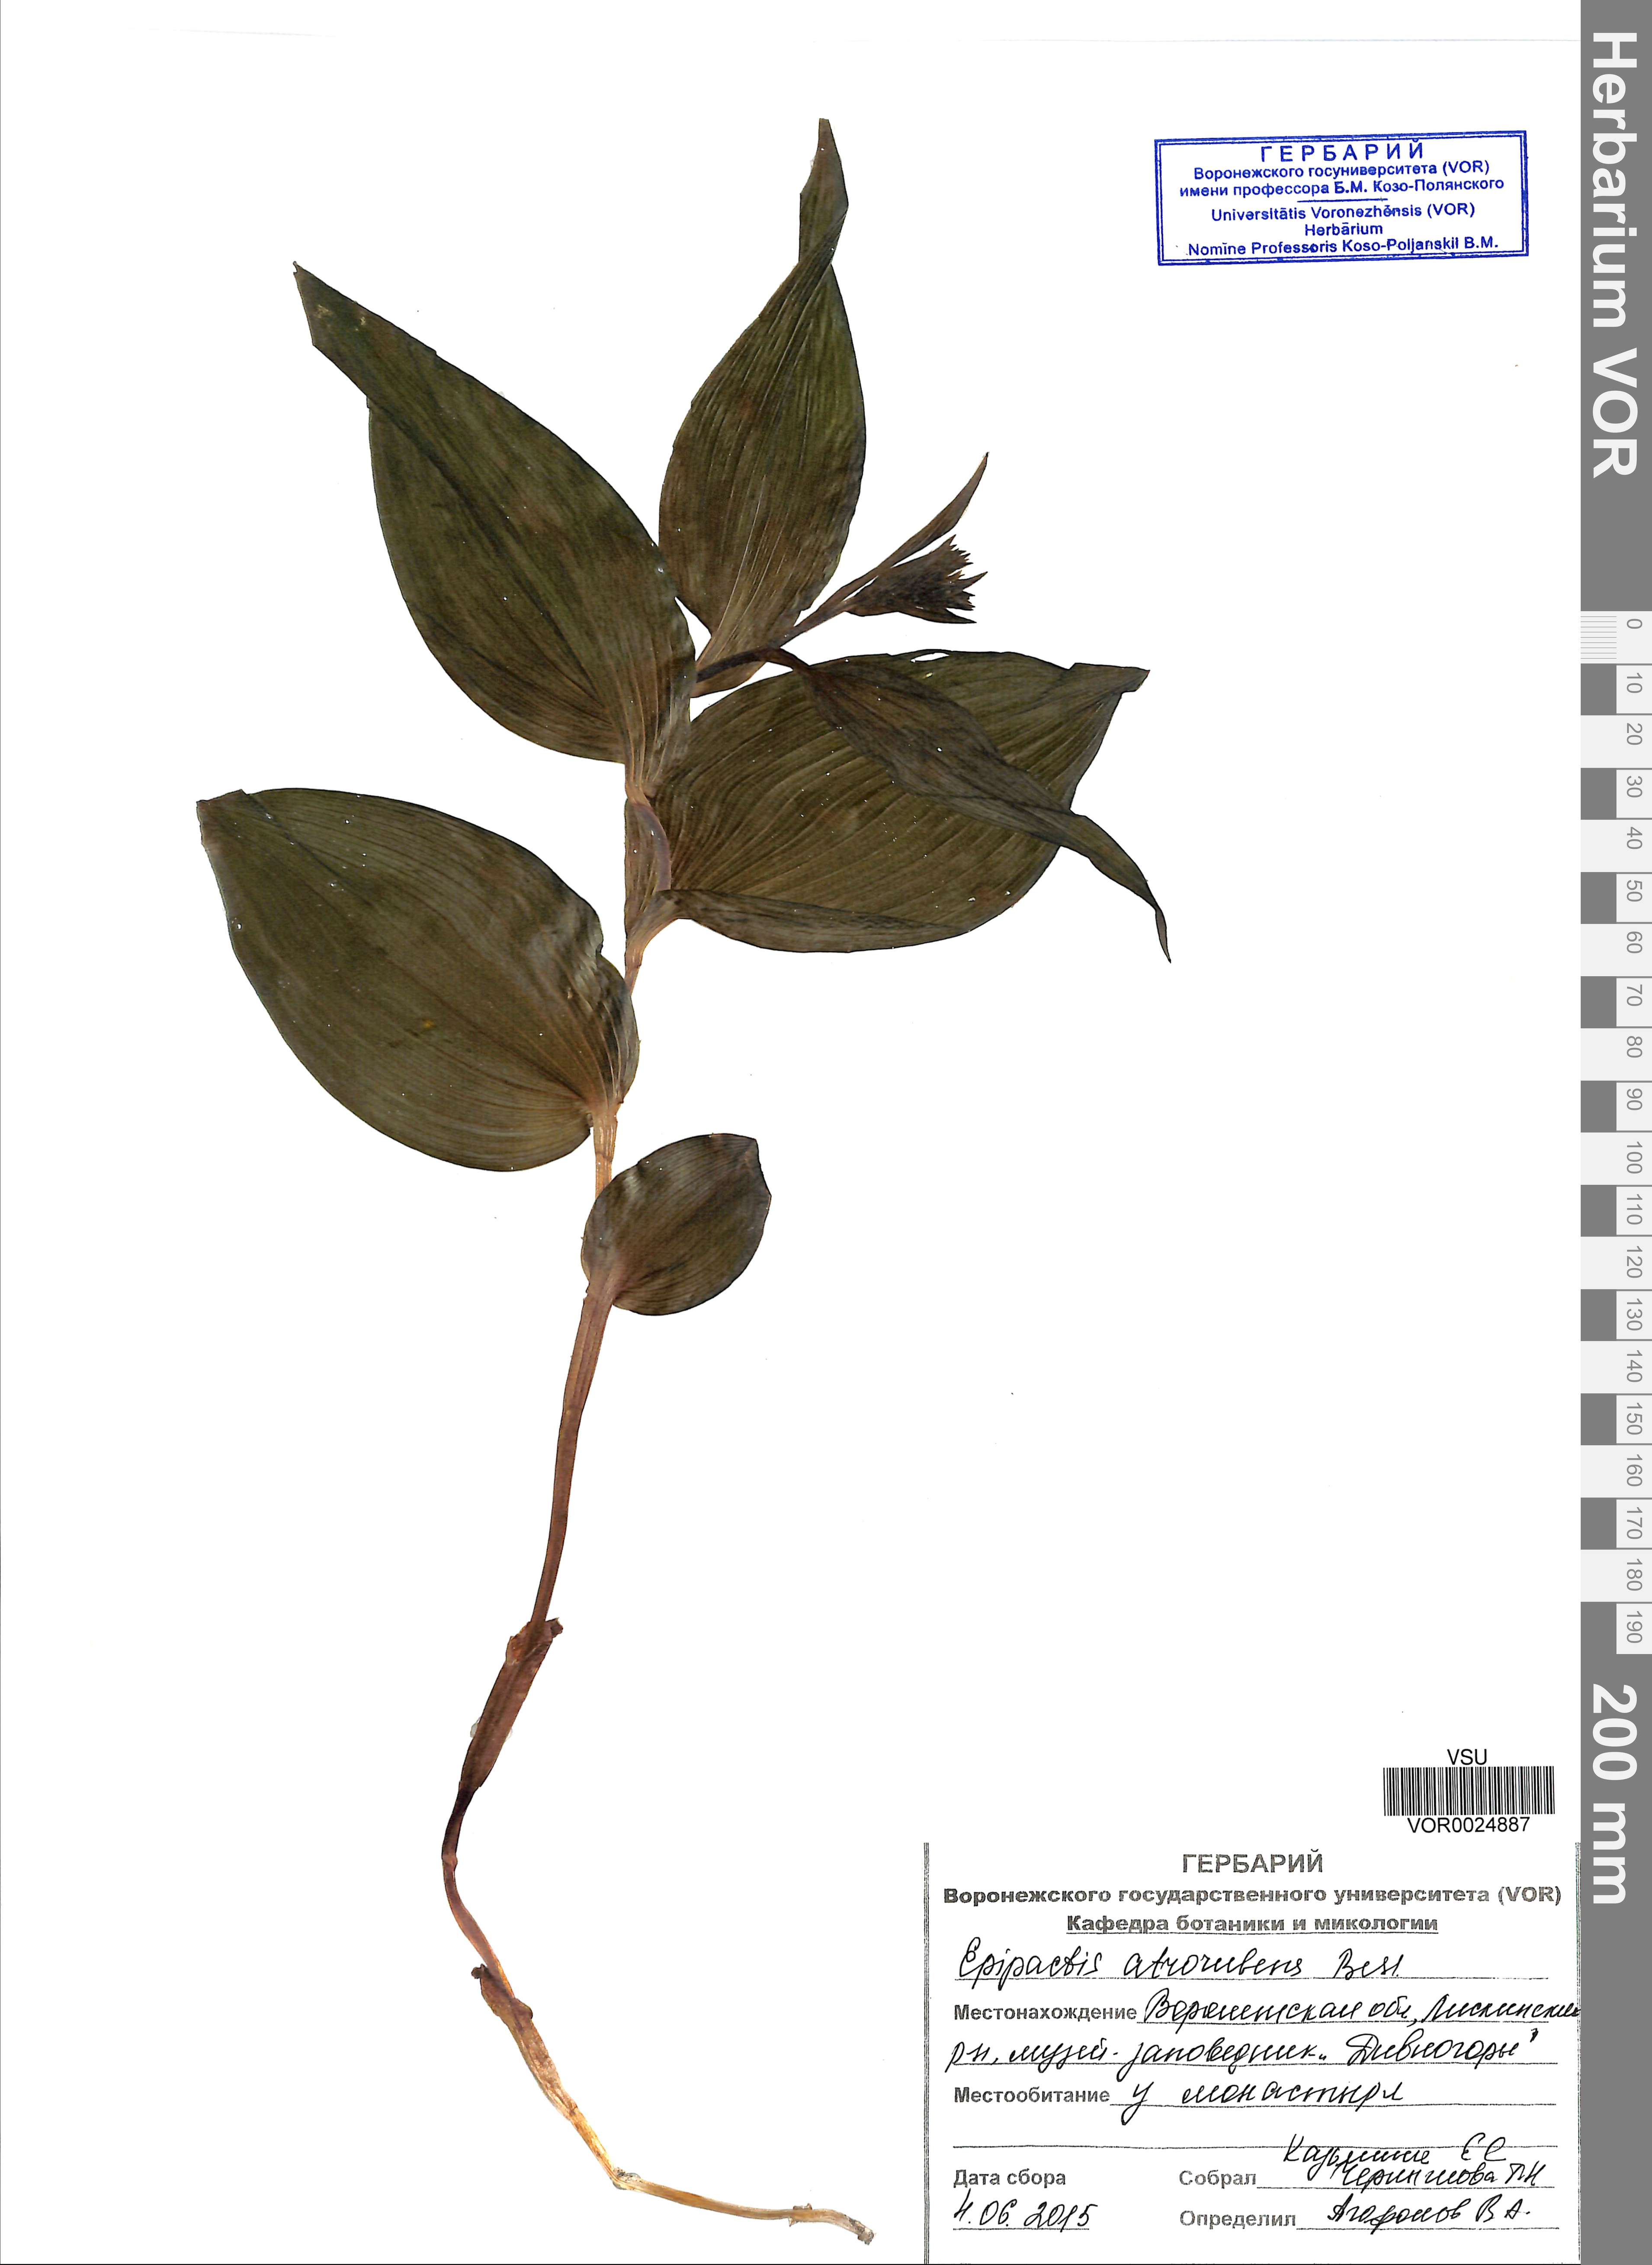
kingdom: Plantae
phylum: Tracheophyta
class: Liliopsida
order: Asparagales
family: Orchidaceae
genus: Epipactis
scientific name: Epipactis atrorubens
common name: Dark-red helleborine
